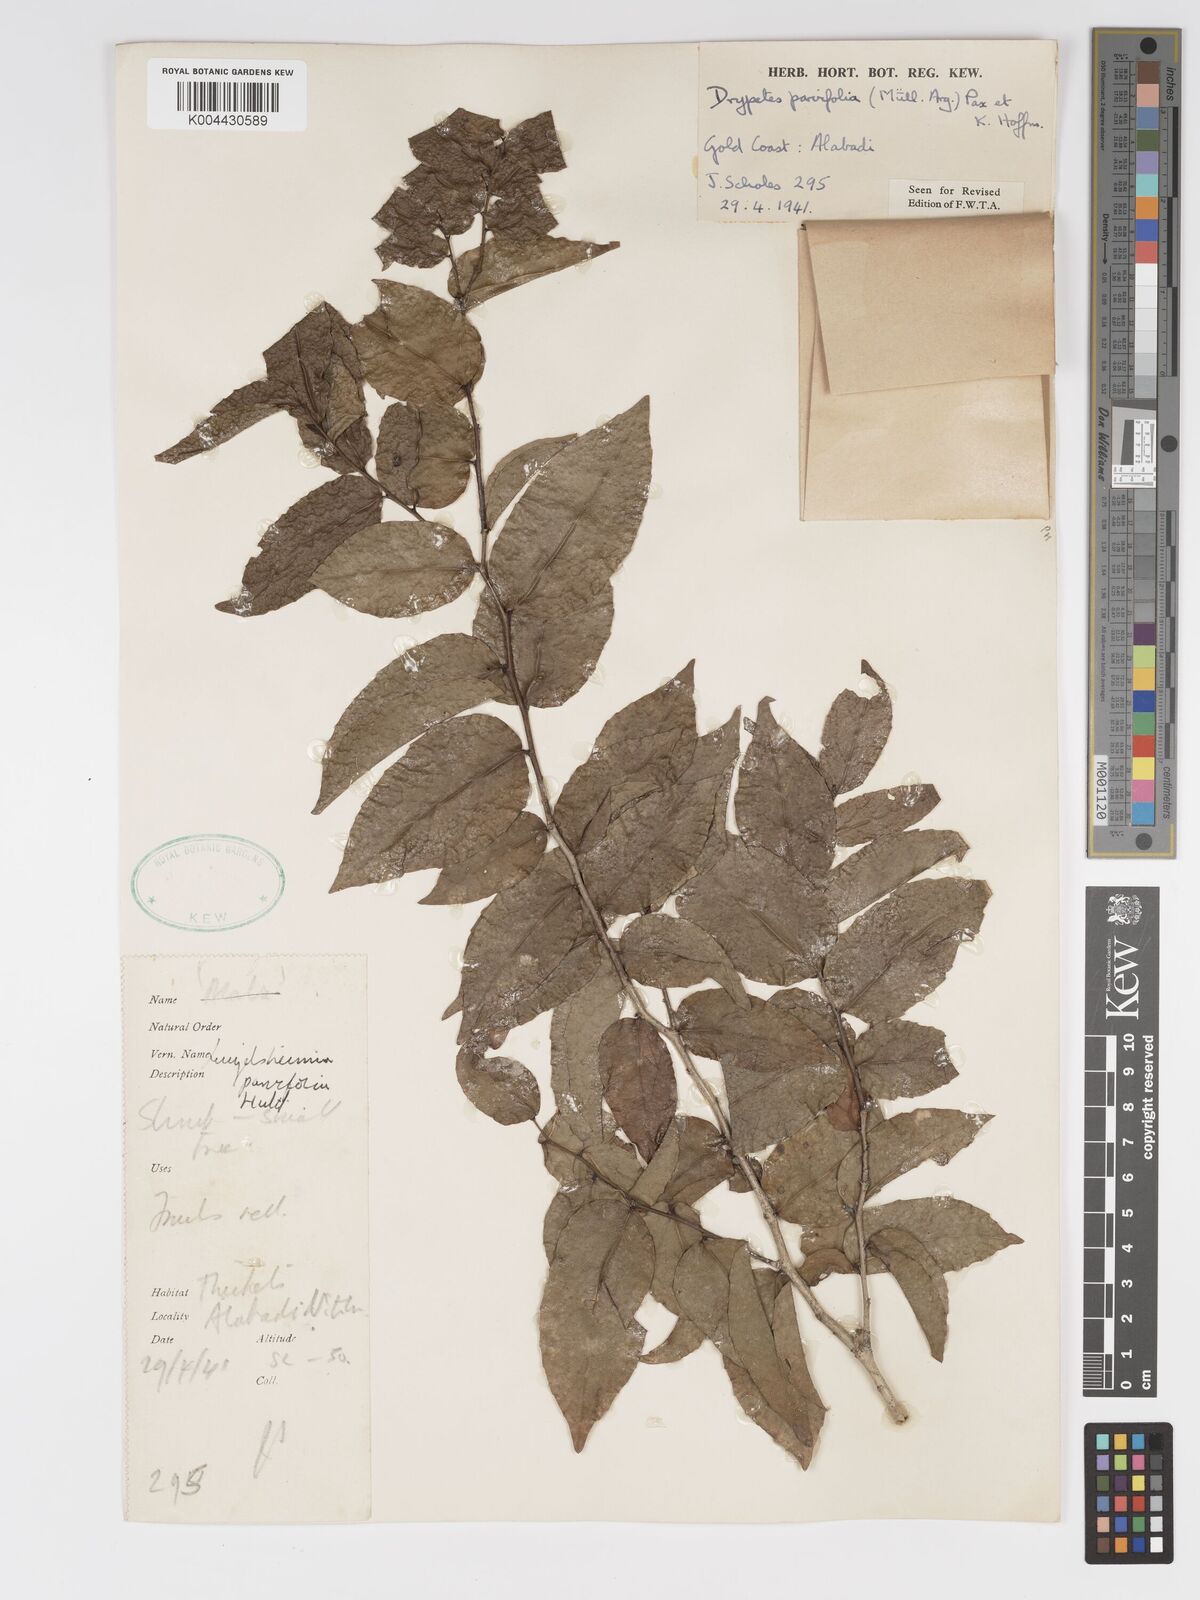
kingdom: Plantae
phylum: Tracheophyta
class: Magnoliopsida
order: Malpighiales
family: Putranjivaceae
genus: Drypetes
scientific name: Drypetes parvifolia
